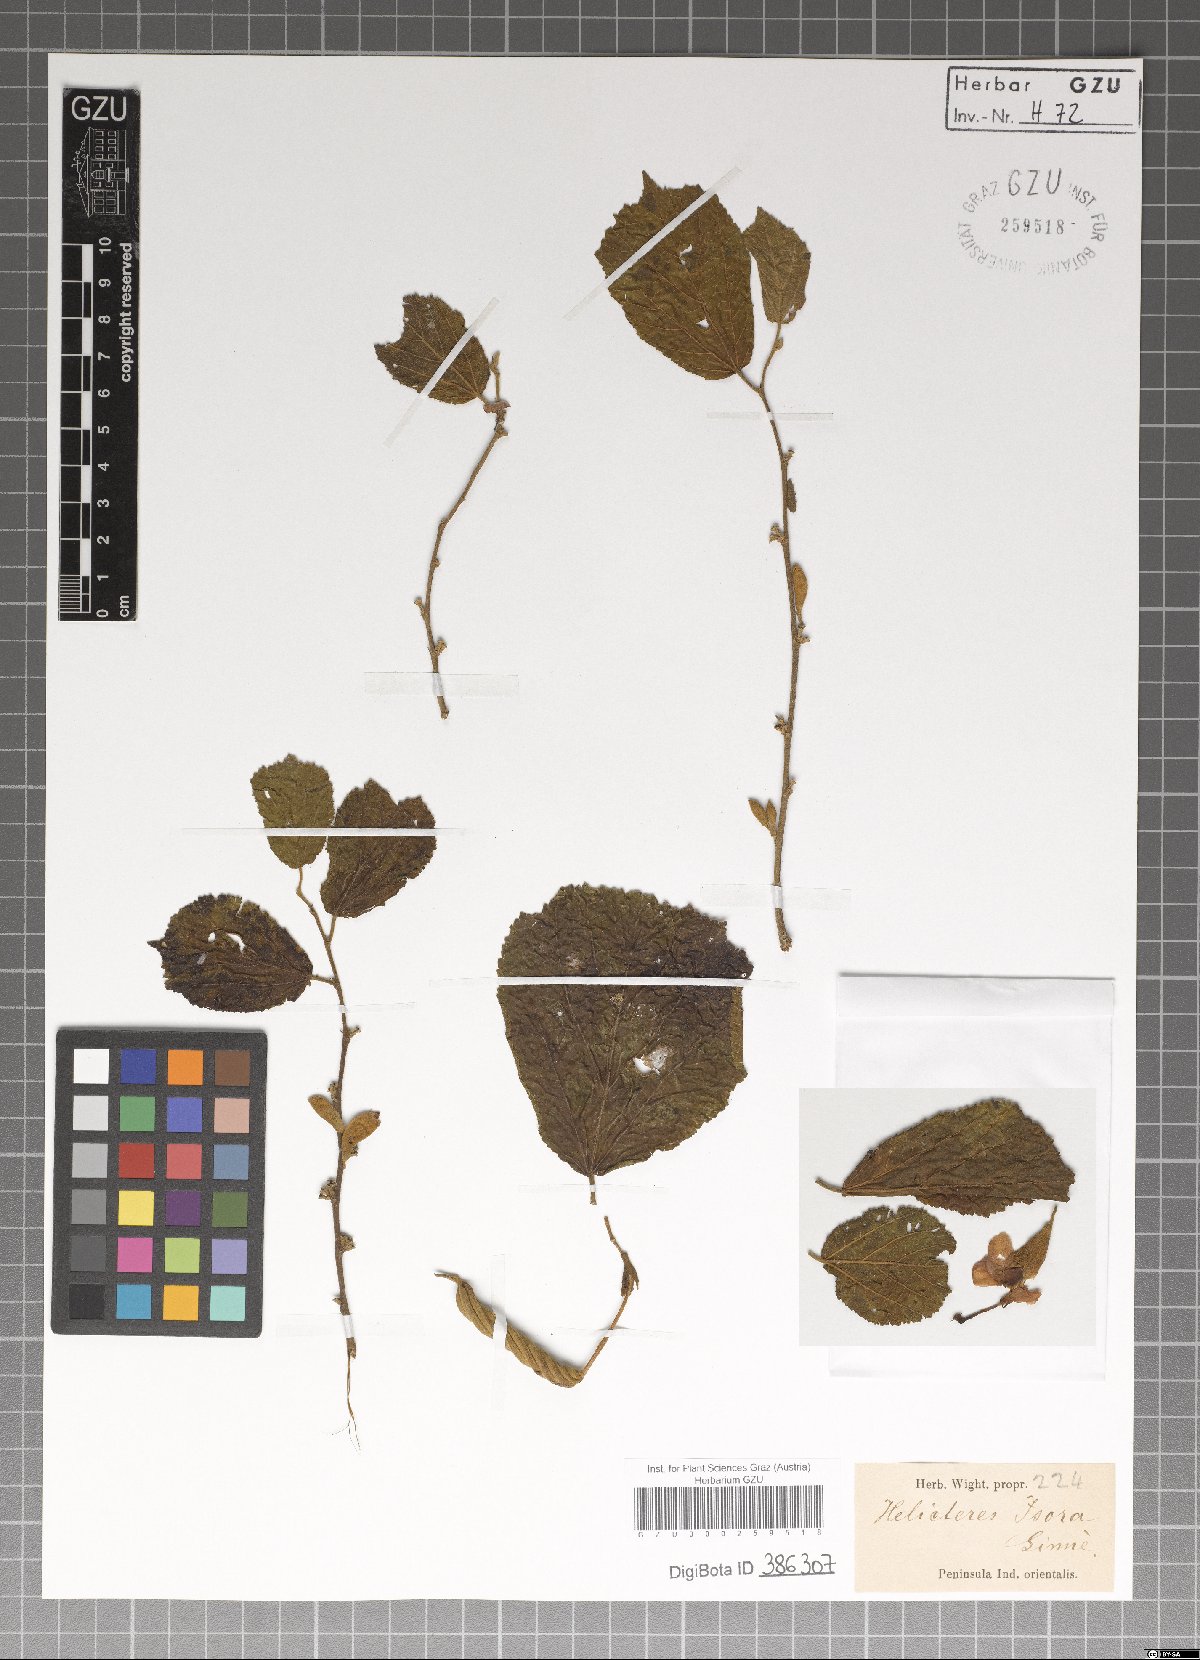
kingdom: Plantae
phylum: Tracheophyta
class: Magnoliopsida
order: Malvales
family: Malvaceae
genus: Helicteres
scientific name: Helicteres isora
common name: East indian screwtree
